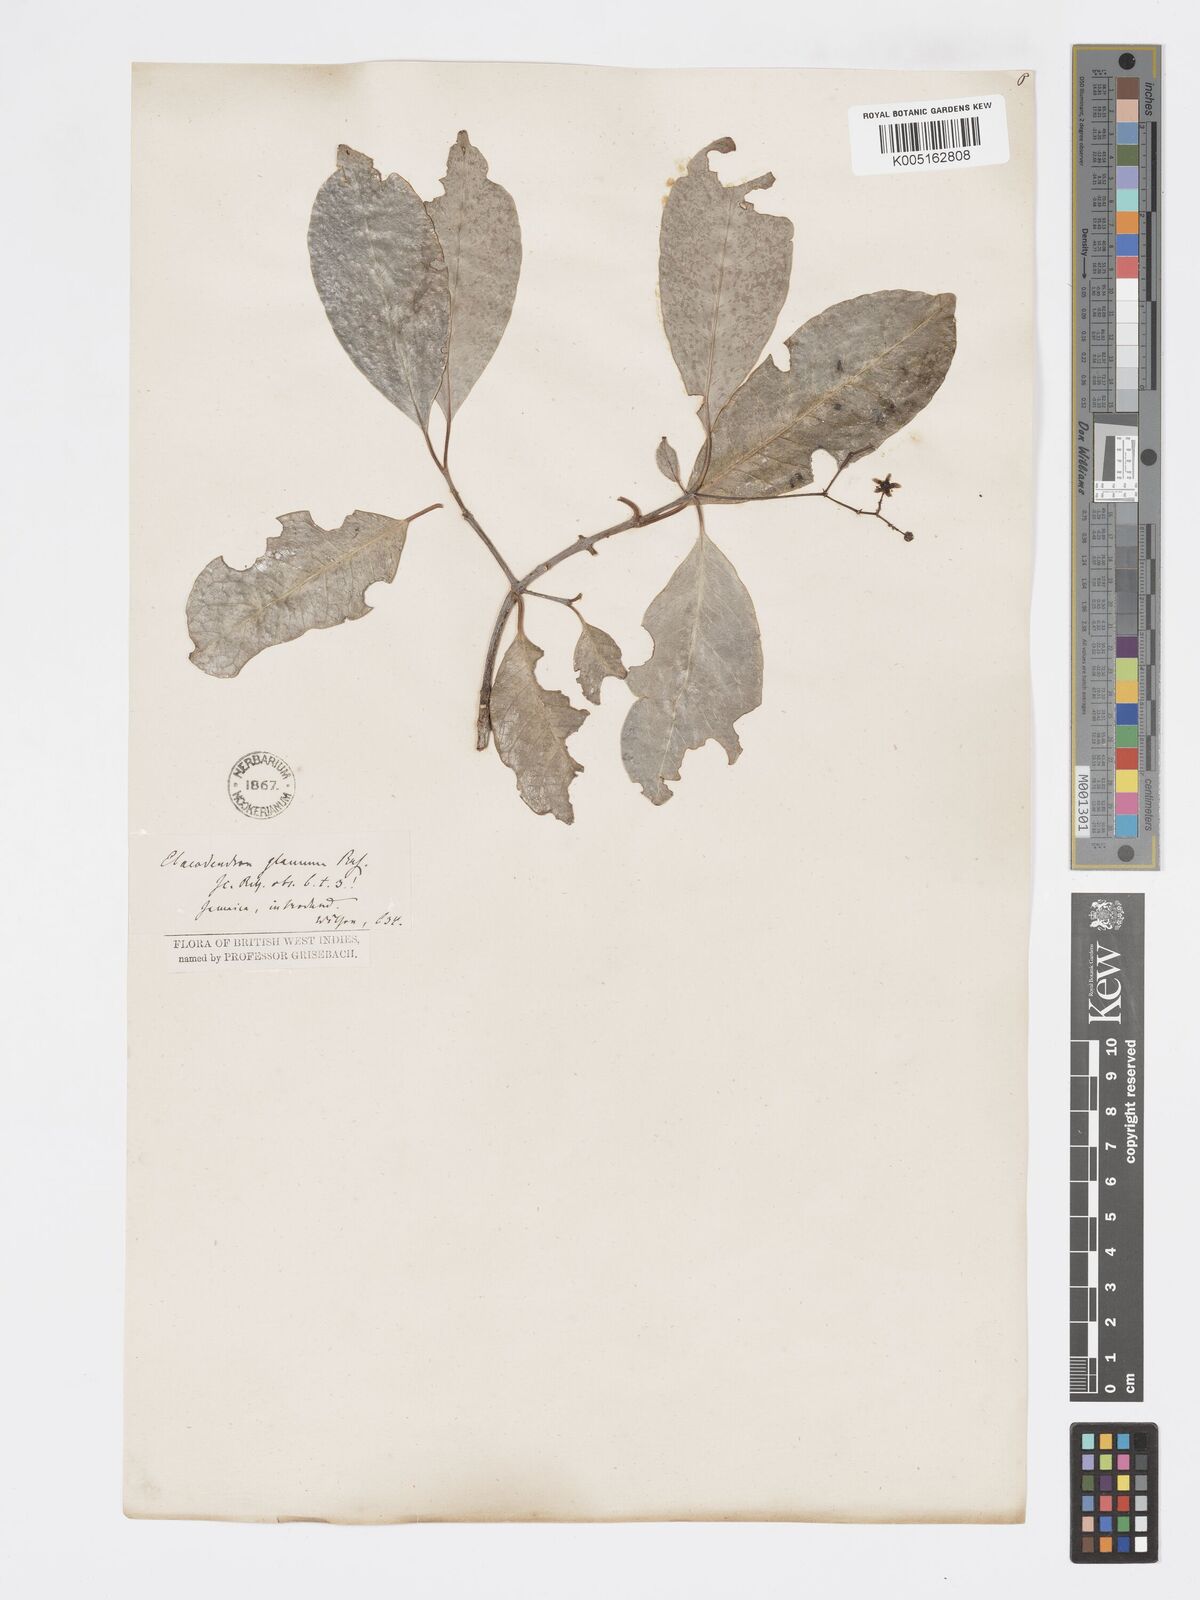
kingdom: Plantae
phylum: Tracheophyta
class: Magnoliopsida
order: Celastrales
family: Celastraceae
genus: Elaeodendron
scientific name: Elaeodendron glaucum
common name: Ceylon-tea
